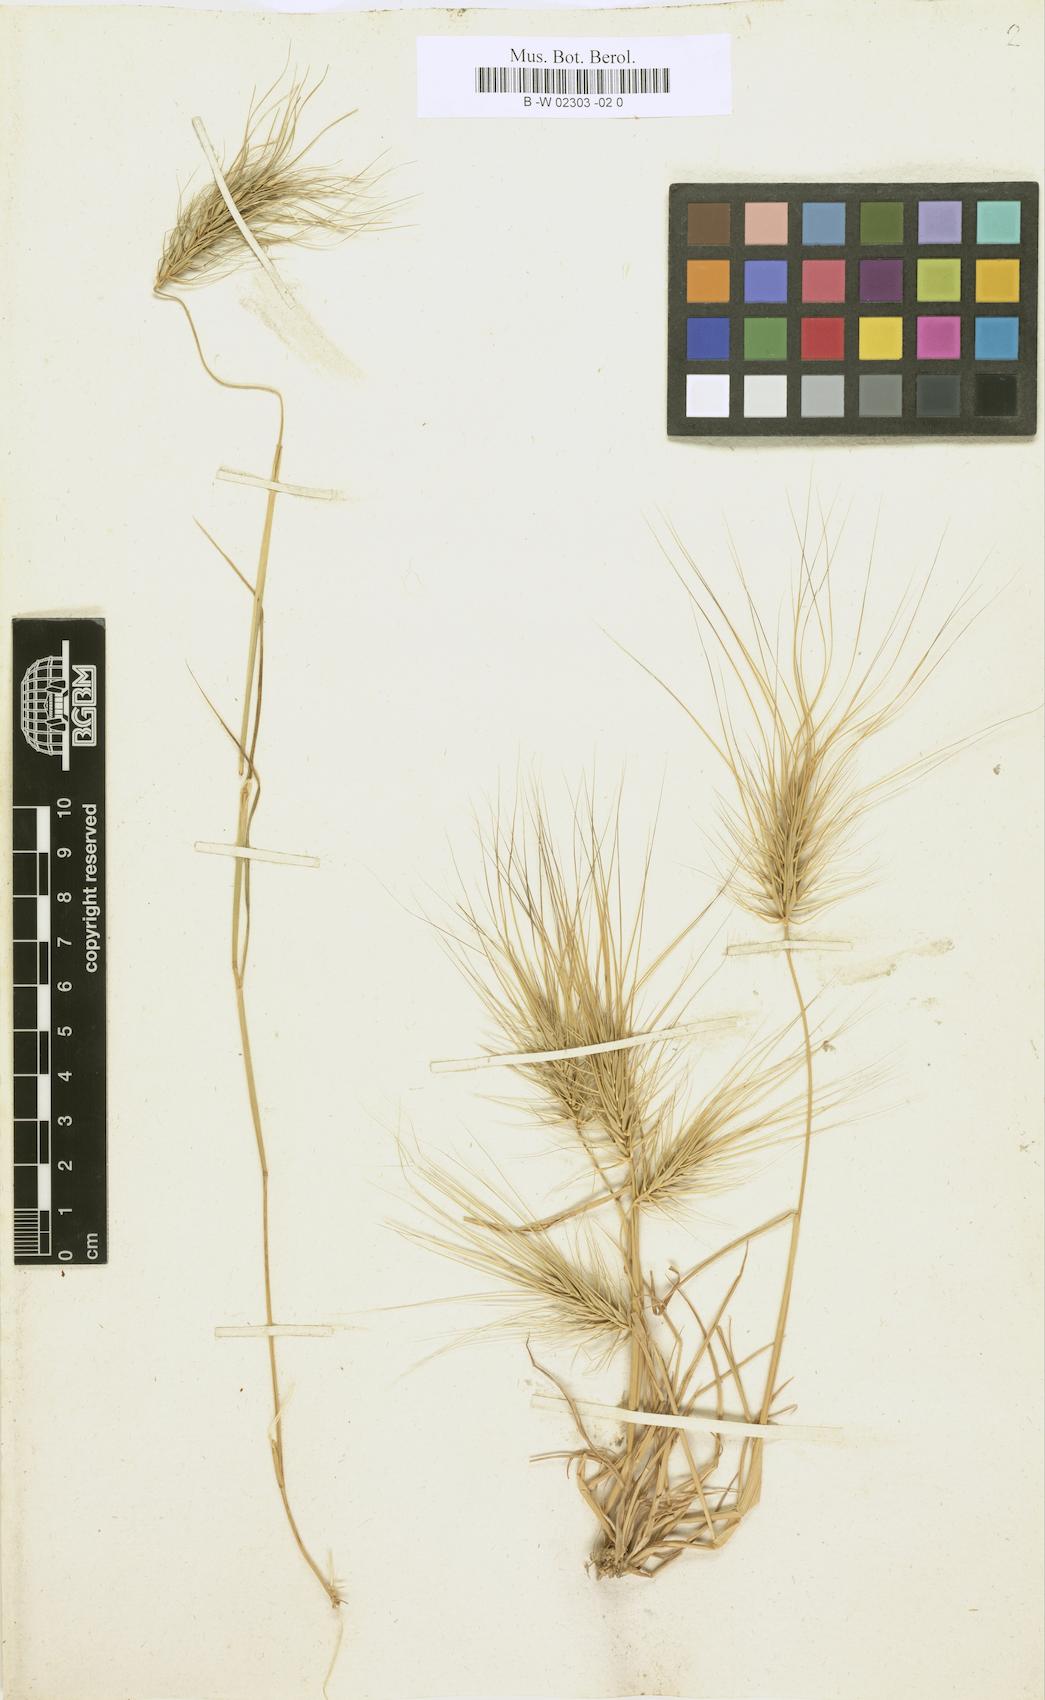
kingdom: Plantae
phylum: Tracheophyta
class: Liliopsida
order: Poales
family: Poaceae
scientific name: Poaceae
